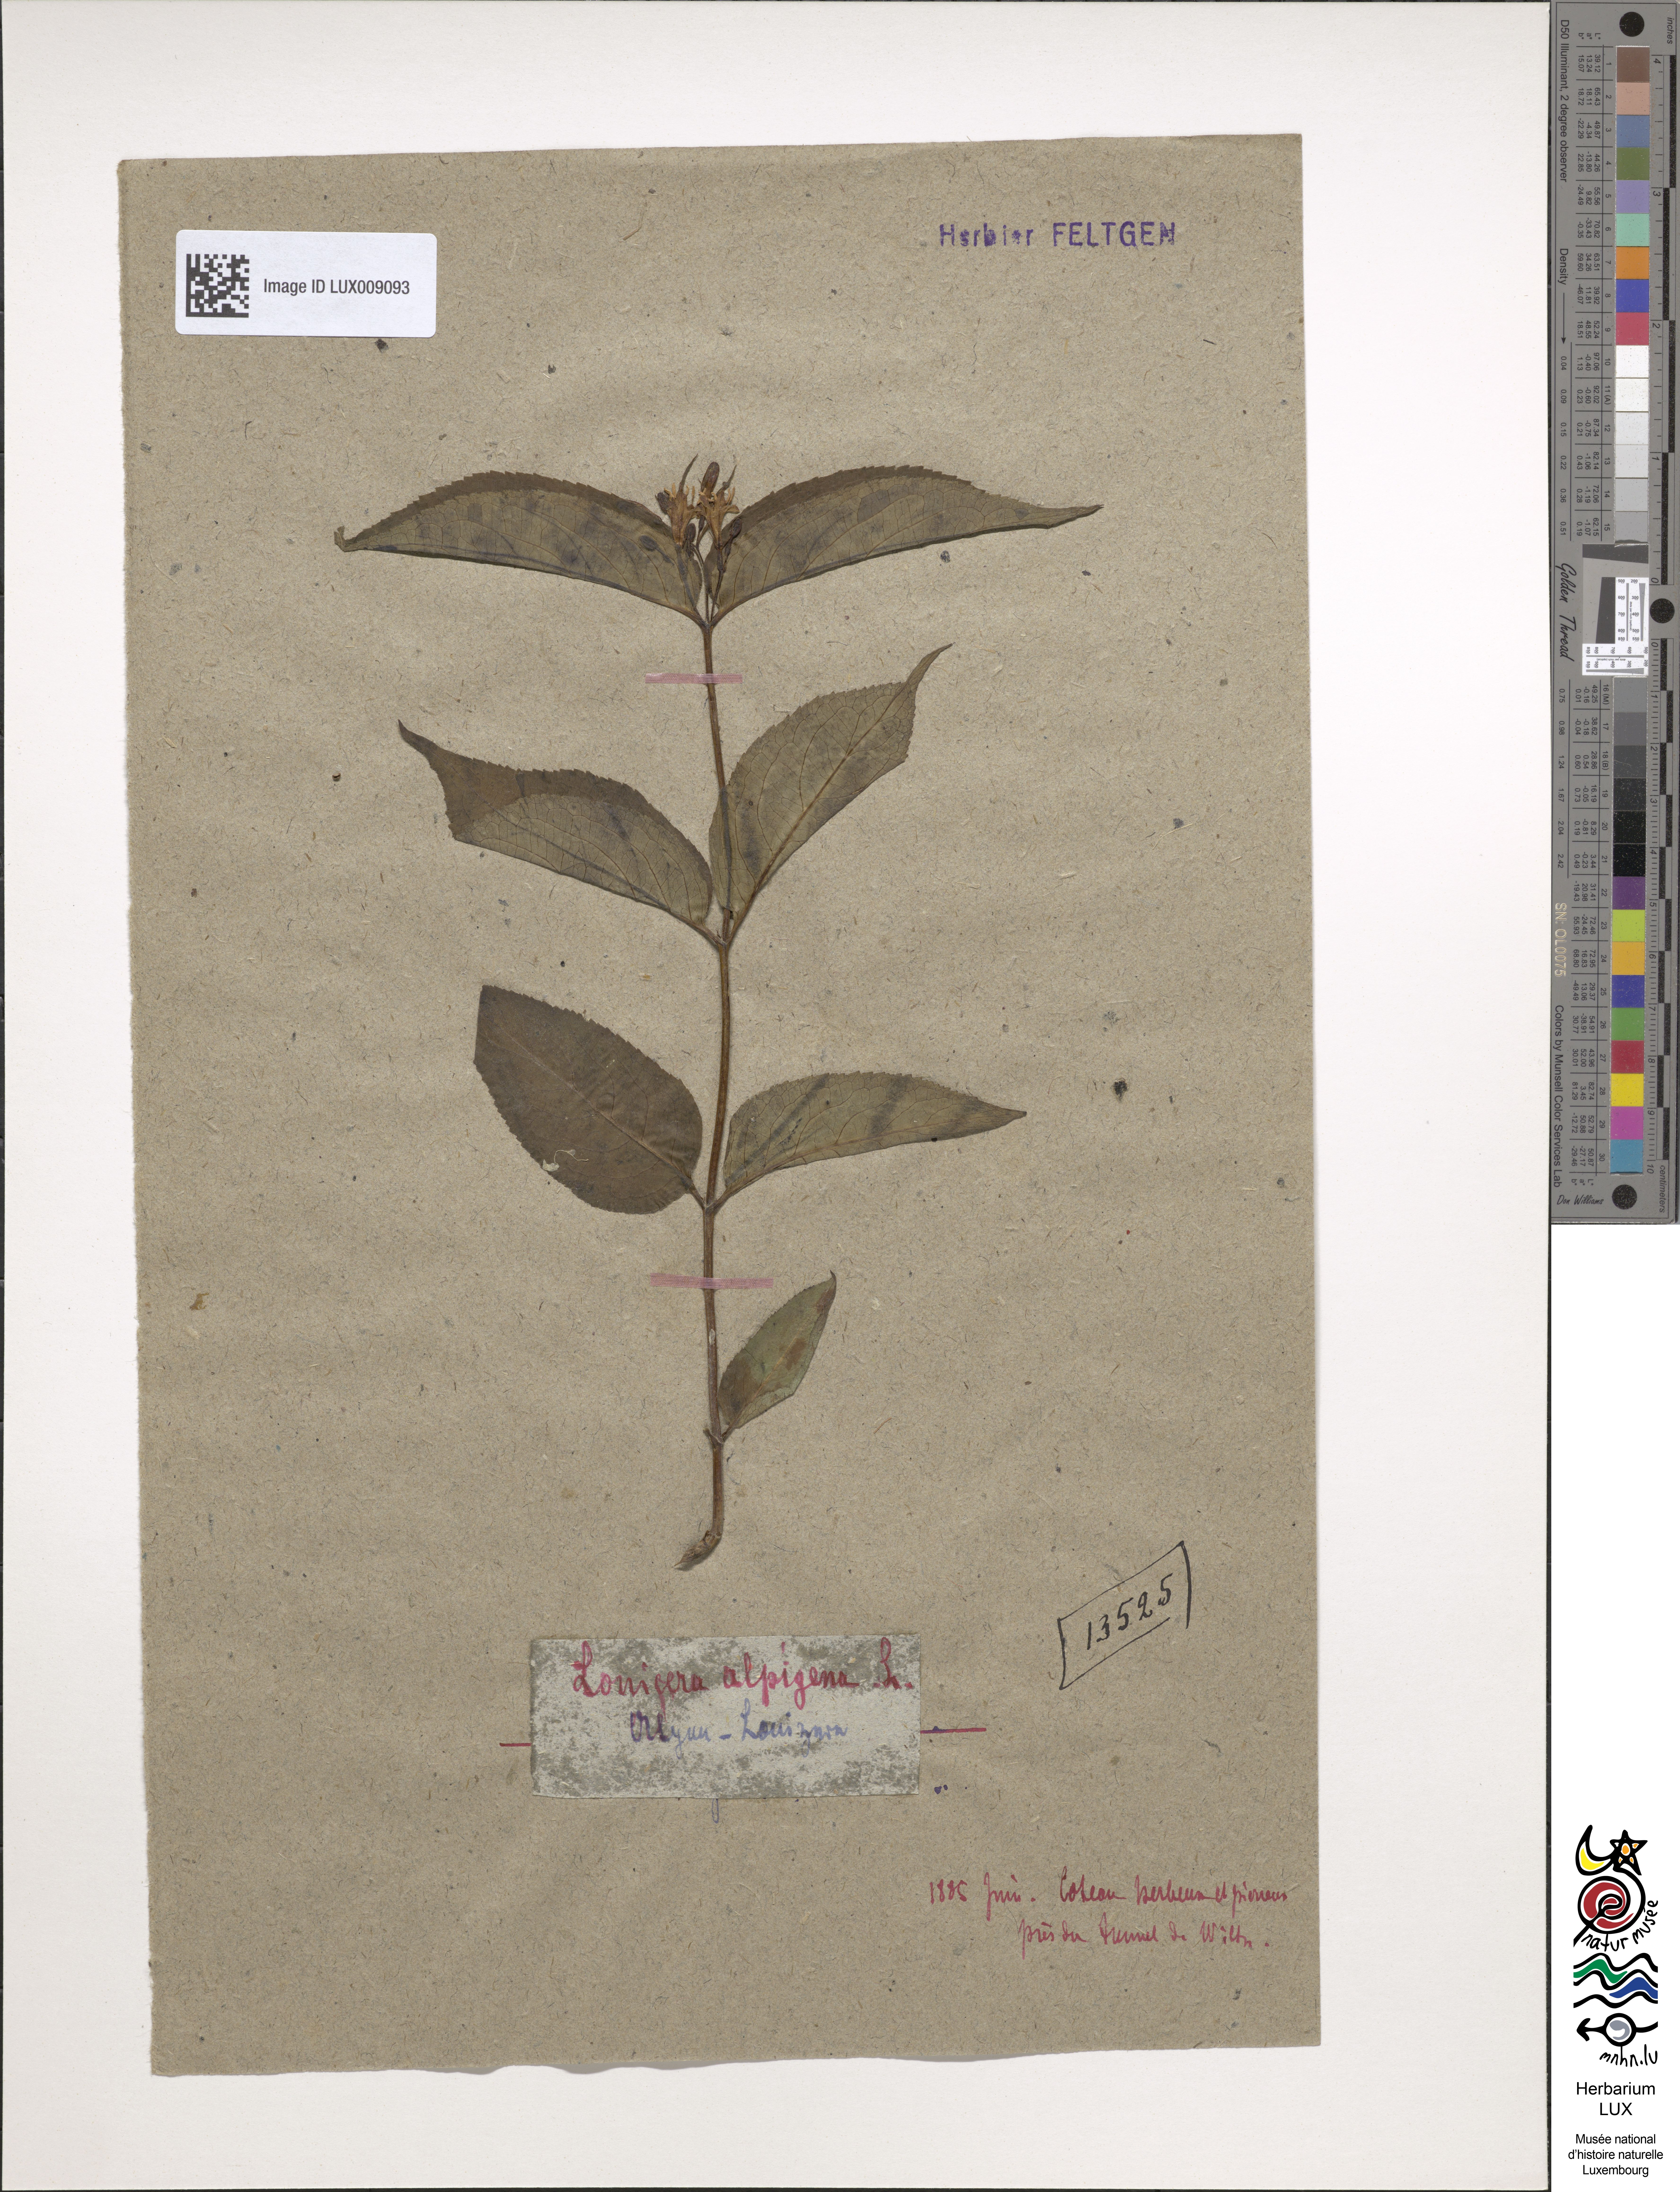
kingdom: Plantae
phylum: Tracheophyta
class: Magnoliopsida
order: Dipsacales
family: Caprifoliaceae
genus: Lonicera
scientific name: Lonicera alpigena
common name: Alpine honeysuckle
